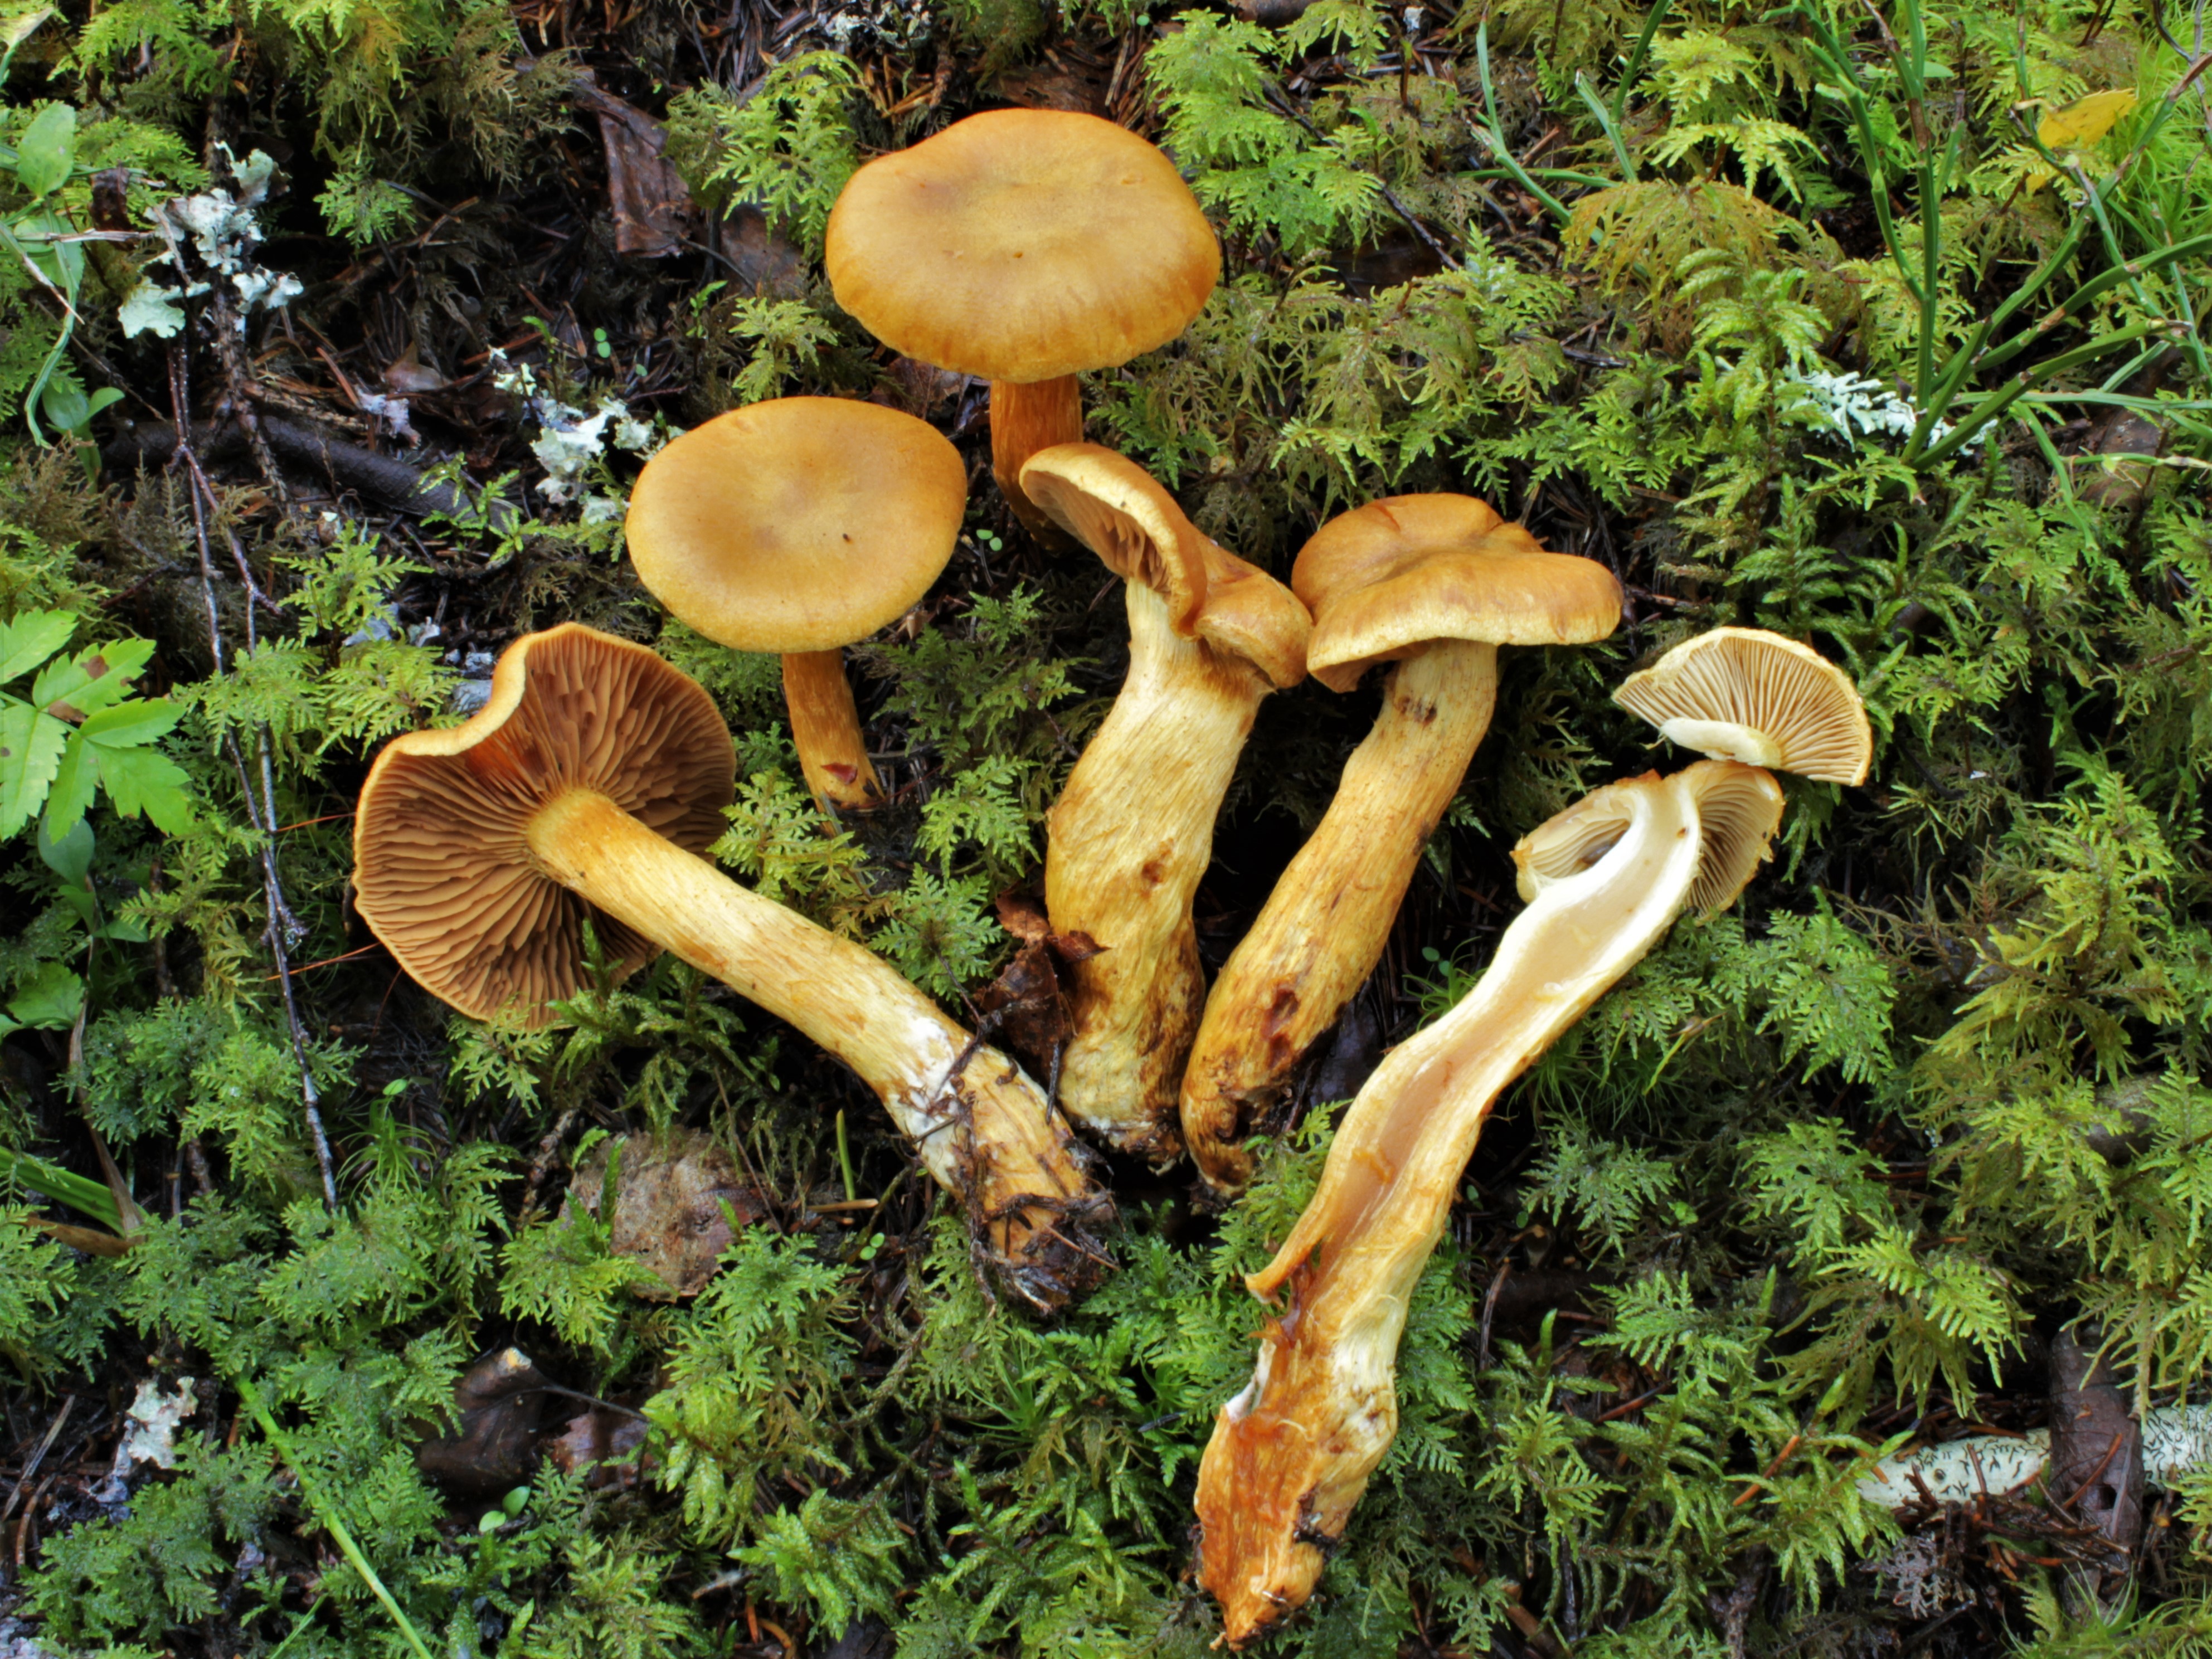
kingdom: Fungi
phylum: Basidiomycota
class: Agaricomycetes
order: Agaricales
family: Cortinariaceae
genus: Cortinarius
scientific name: Cortinarius citrinofulvescens
